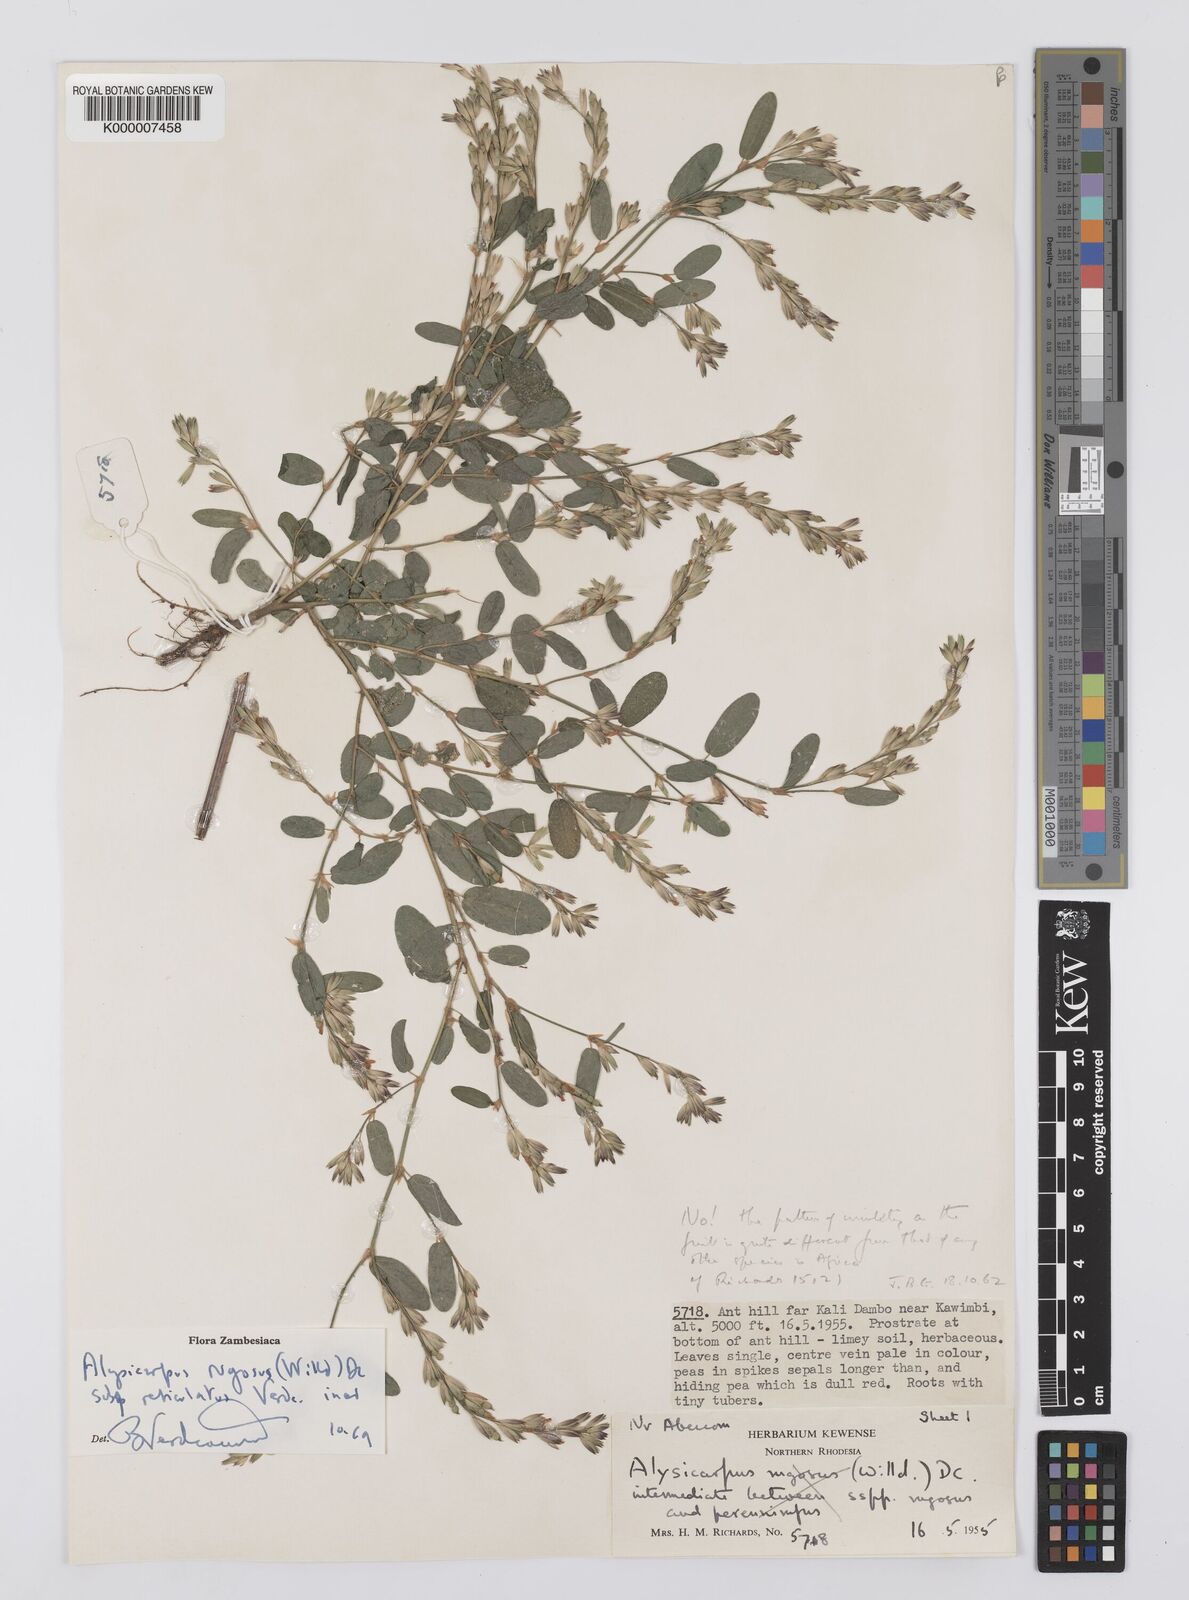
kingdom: Plantae
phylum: Tracheophyta
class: Magnoliopsida
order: Fabales
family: Fabaceae
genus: Alysicarpus
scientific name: Alysicarpus rugosus
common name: Red moneywort
